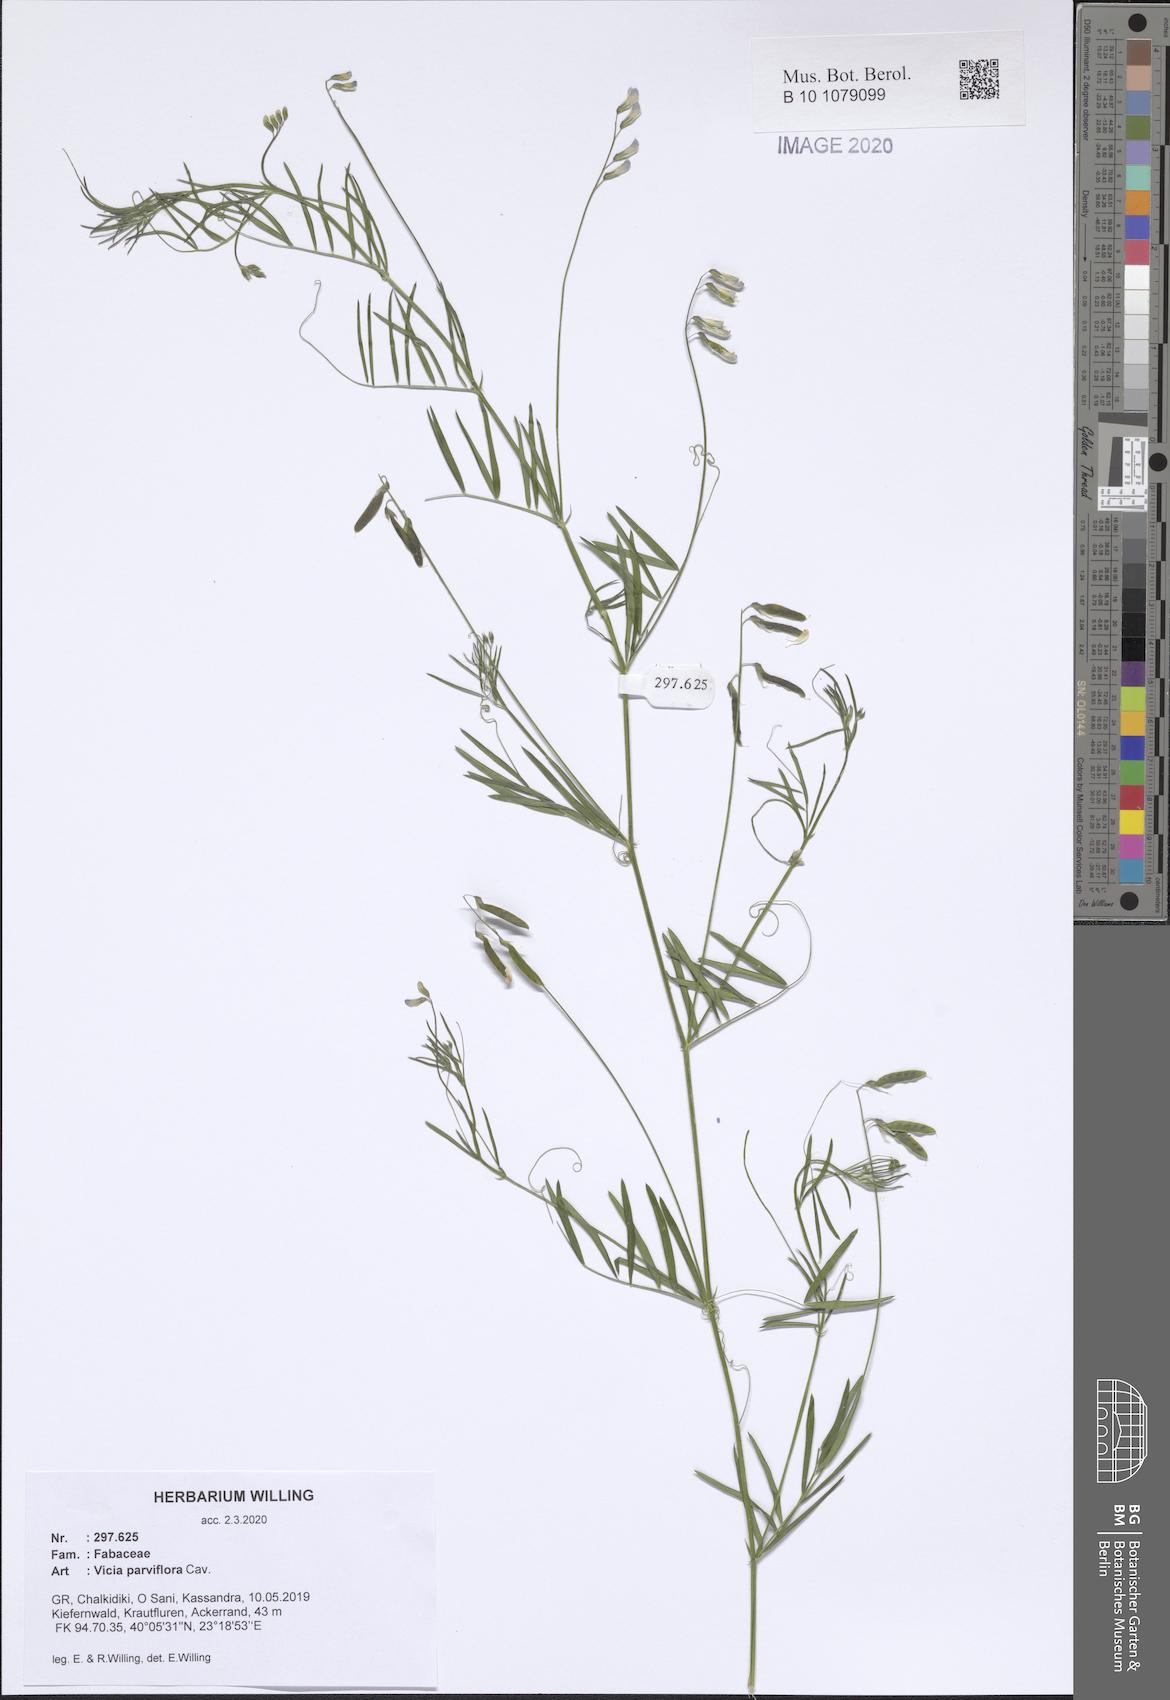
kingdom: Plantae
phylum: Tracheophyta
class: Magnoliopsida
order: Fabales
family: Fabaceae
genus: Vicia
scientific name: Vicia parviflora
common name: Slender tare
